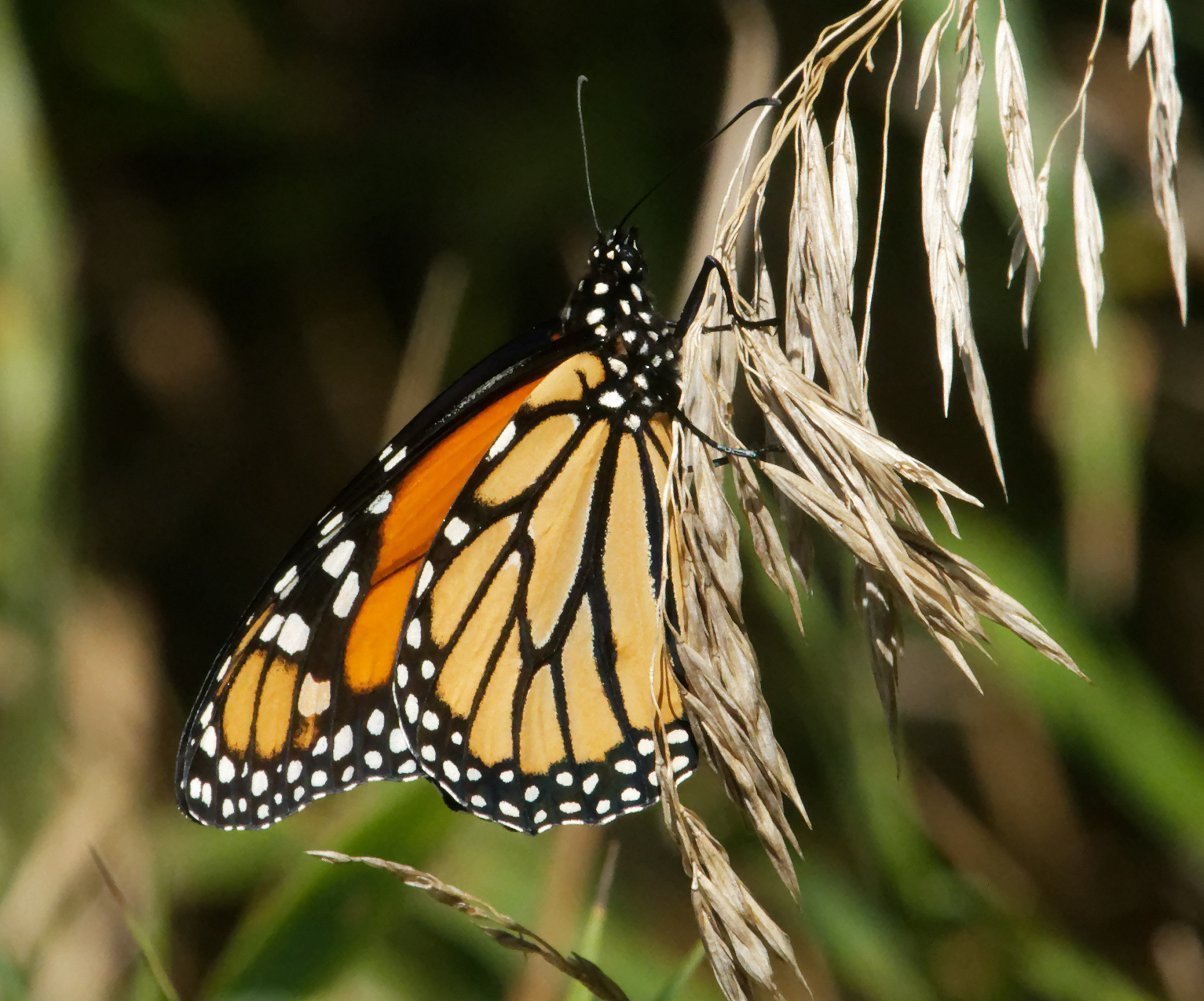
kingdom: Animalia
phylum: Arthropoda
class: Insecta
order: Lepidoptera
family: Nymphalidae
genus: Danaus
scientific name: Danaus plexippus
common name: Monarch
